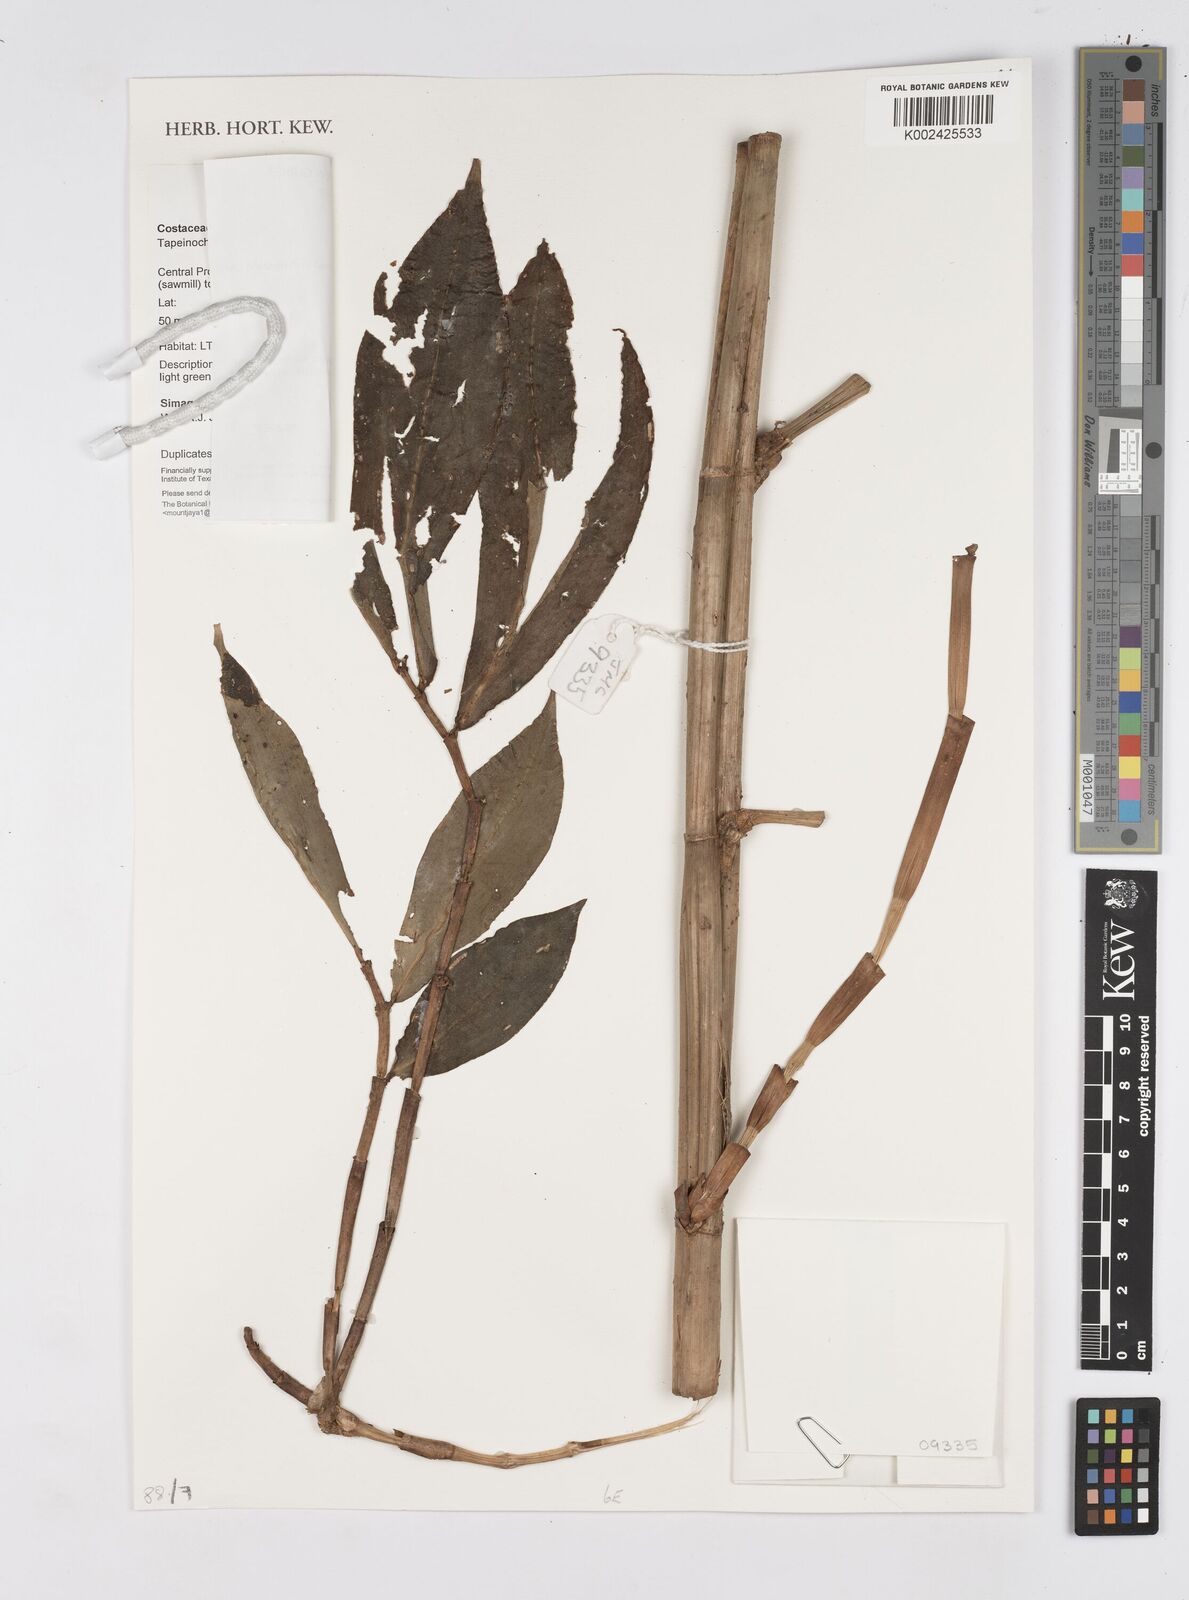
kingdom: Plantae
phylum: Tracheophyta
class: Liliopsida
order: Zingiberales
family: Costaceae
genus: Tapeinochilos
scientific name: Tapeinochilos
